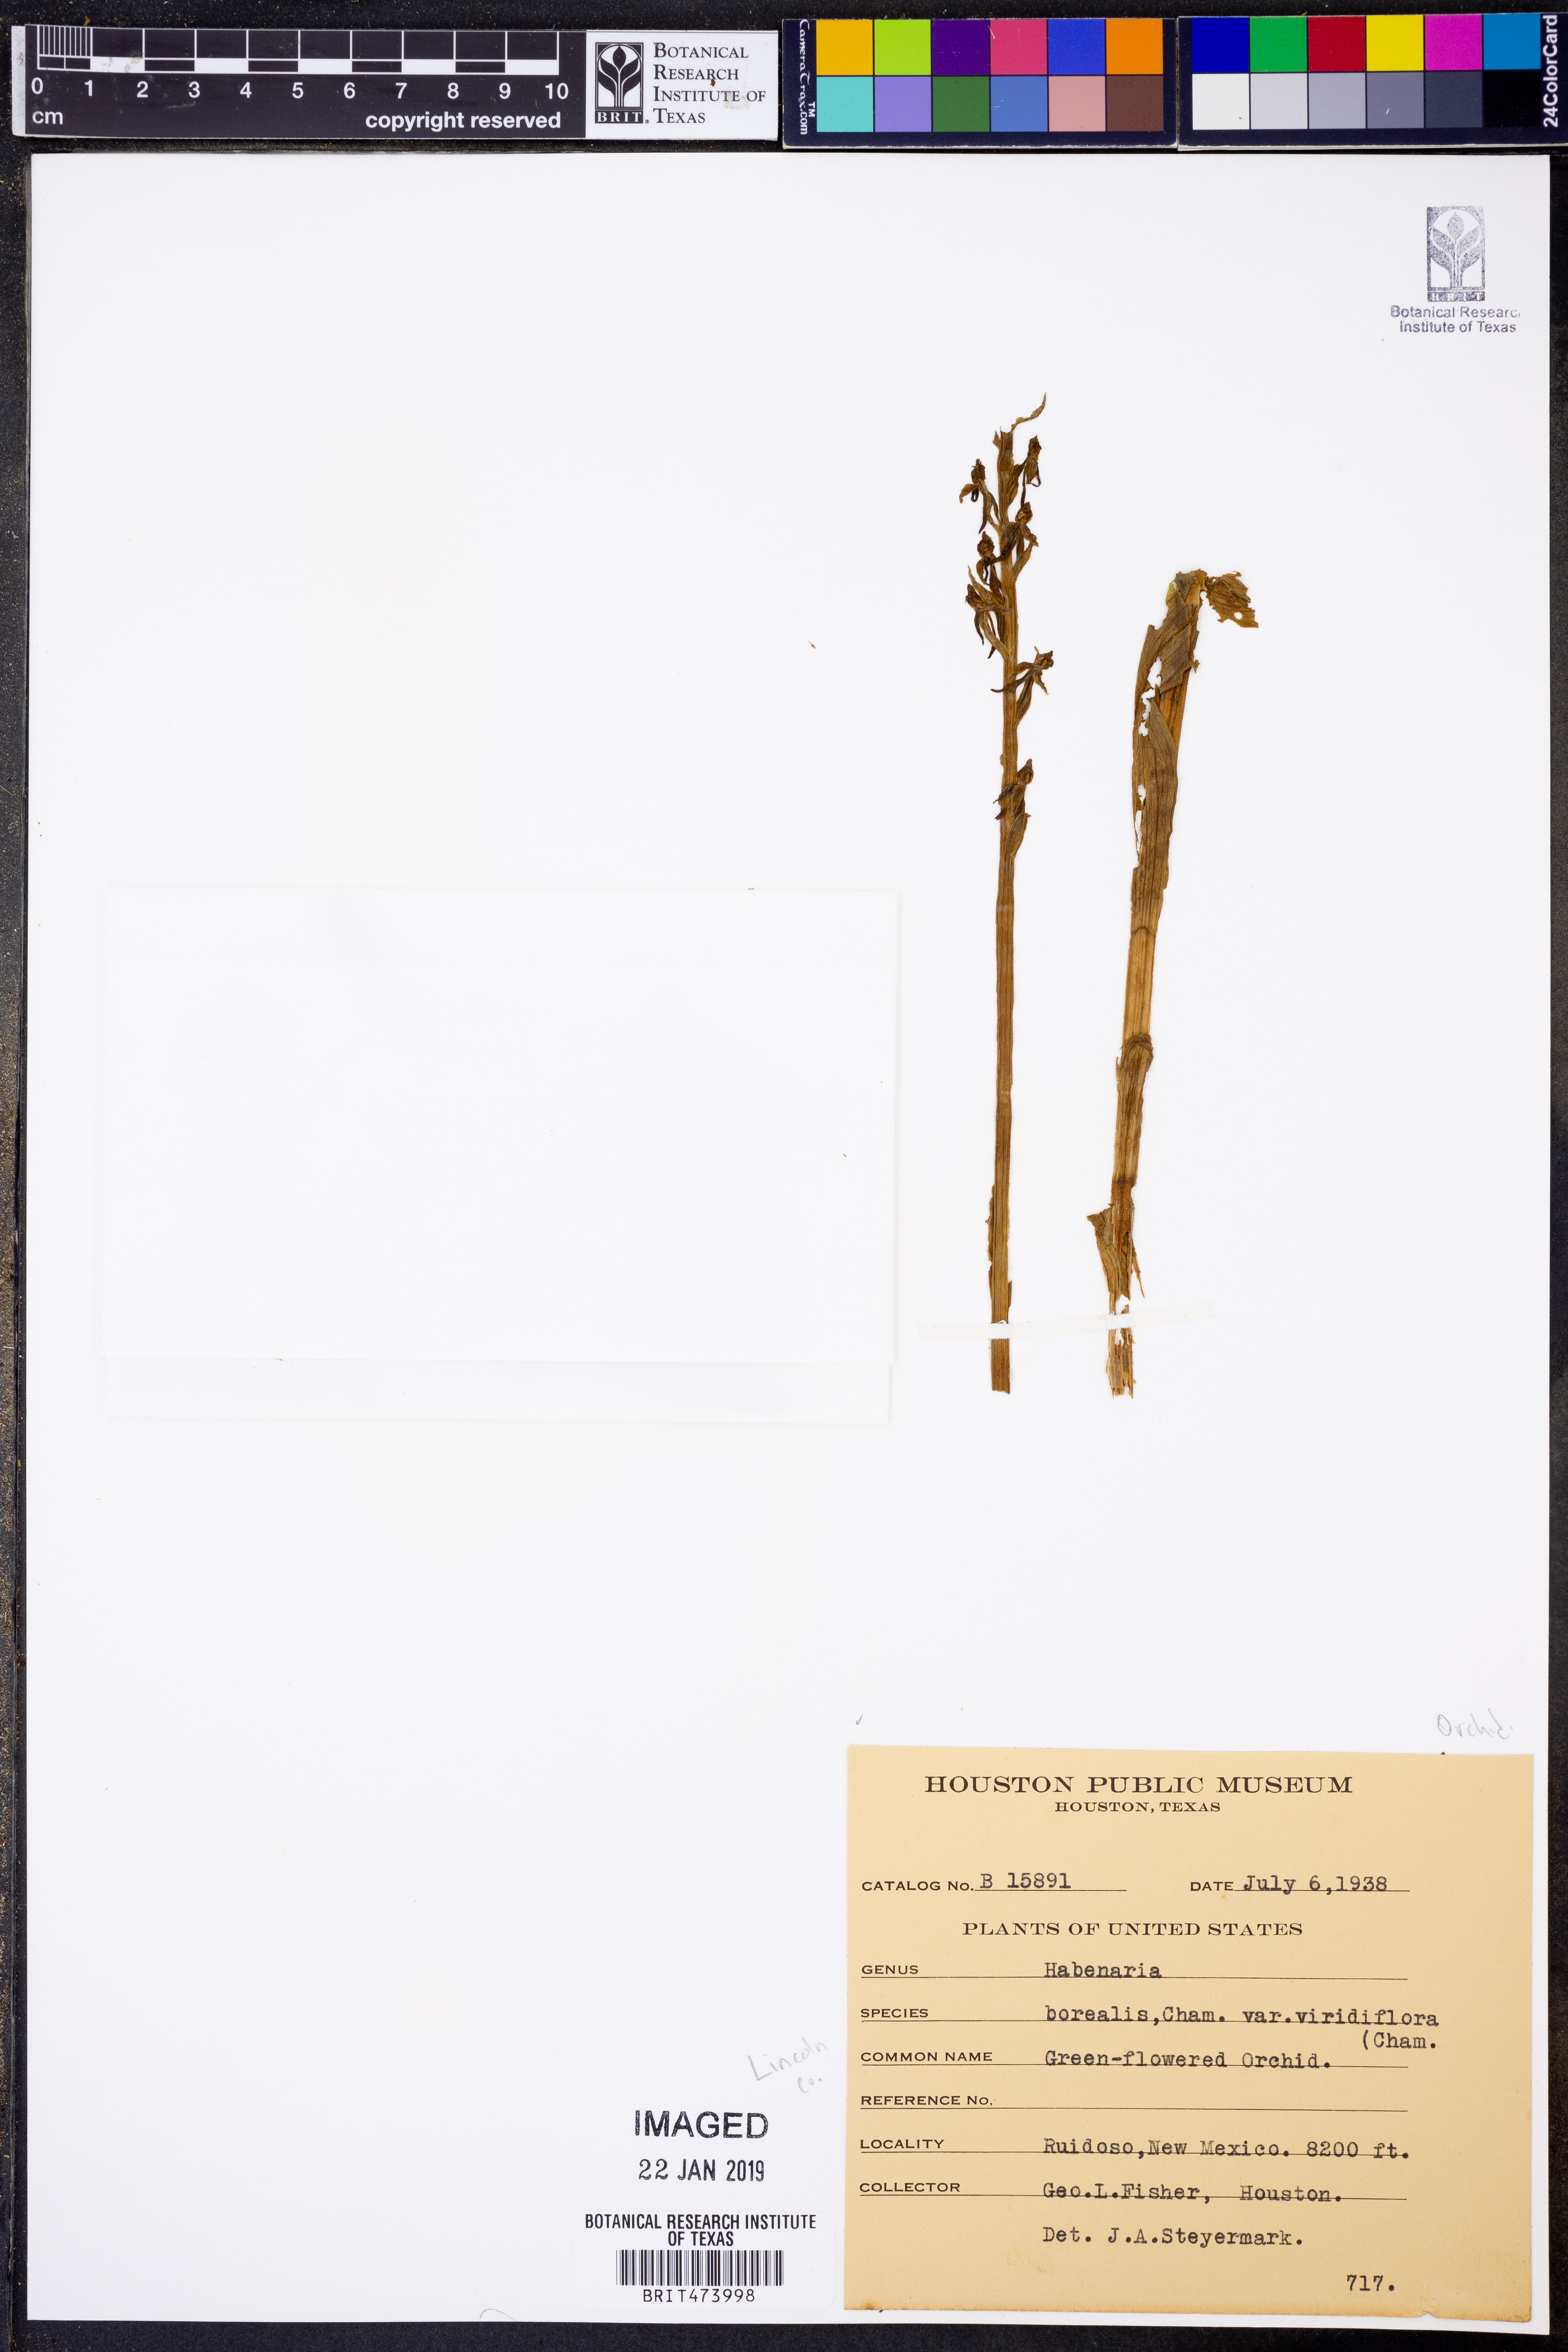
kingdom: Plantae
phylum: Tracheophyta
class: Liliopsida
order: Asparagales
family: Orchidaceae
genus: Platanthera
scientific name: Platanthera stricta
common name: Slender bog orchid
